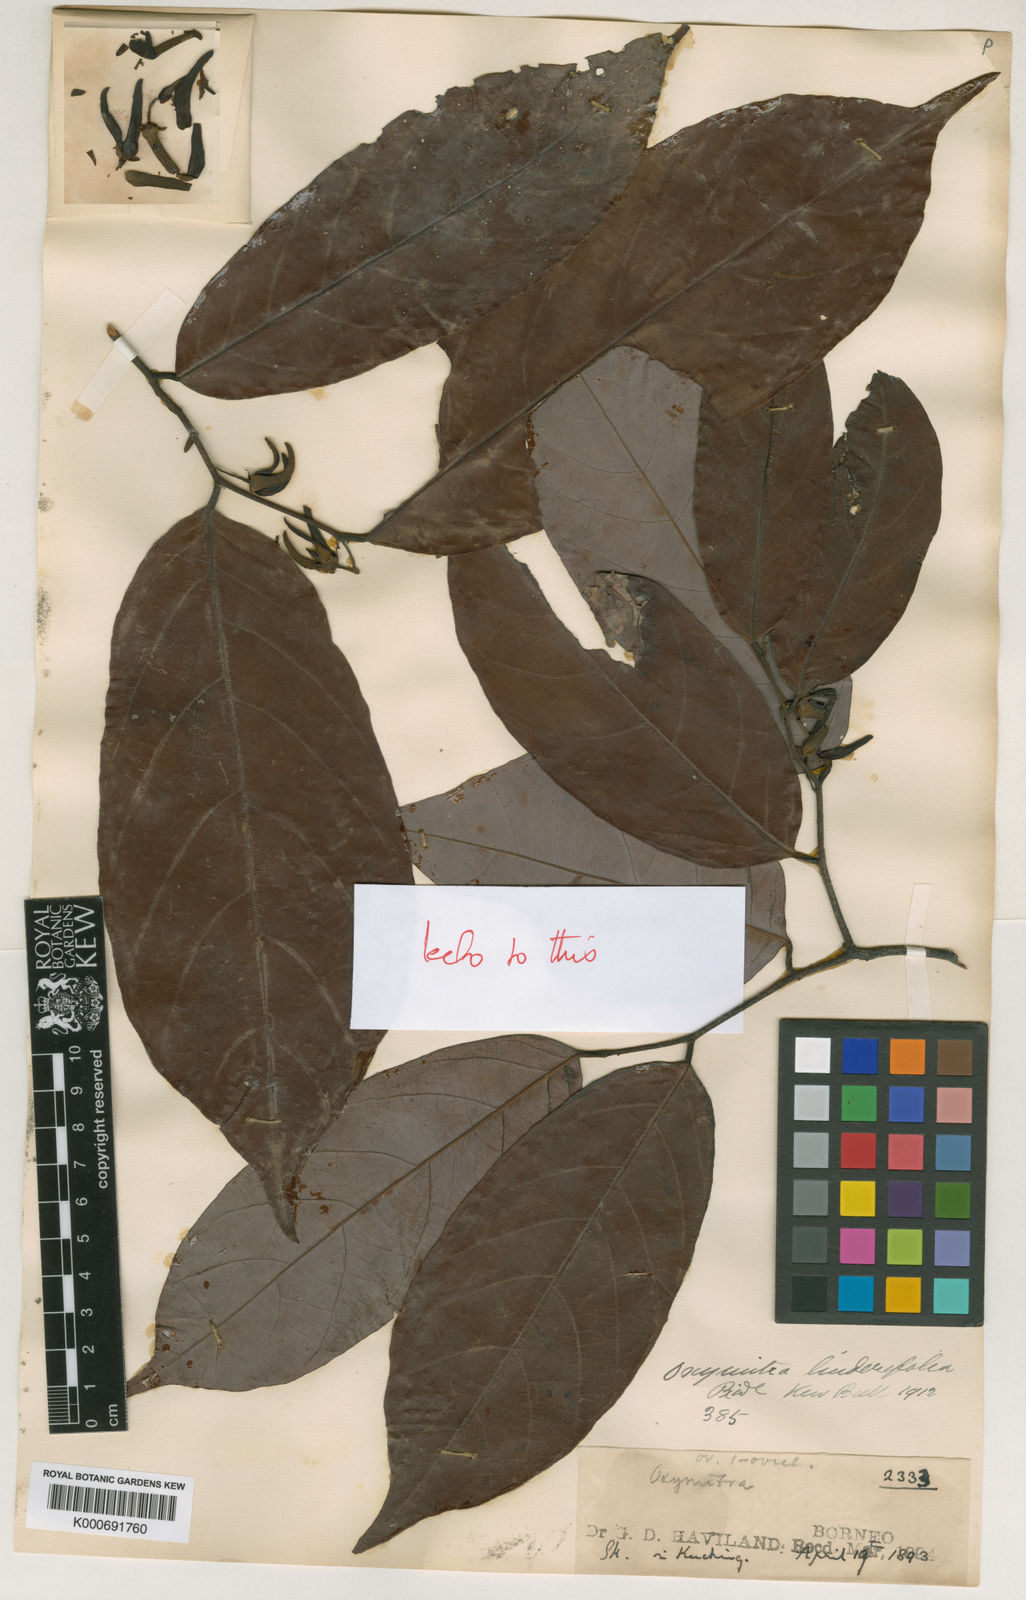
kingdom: Plantae
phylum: Tracheophyta
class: Magnoliopsida
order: Magnoliales
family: Annonaceae
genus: Friesodielsia
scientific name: Friesodielsia glauca
